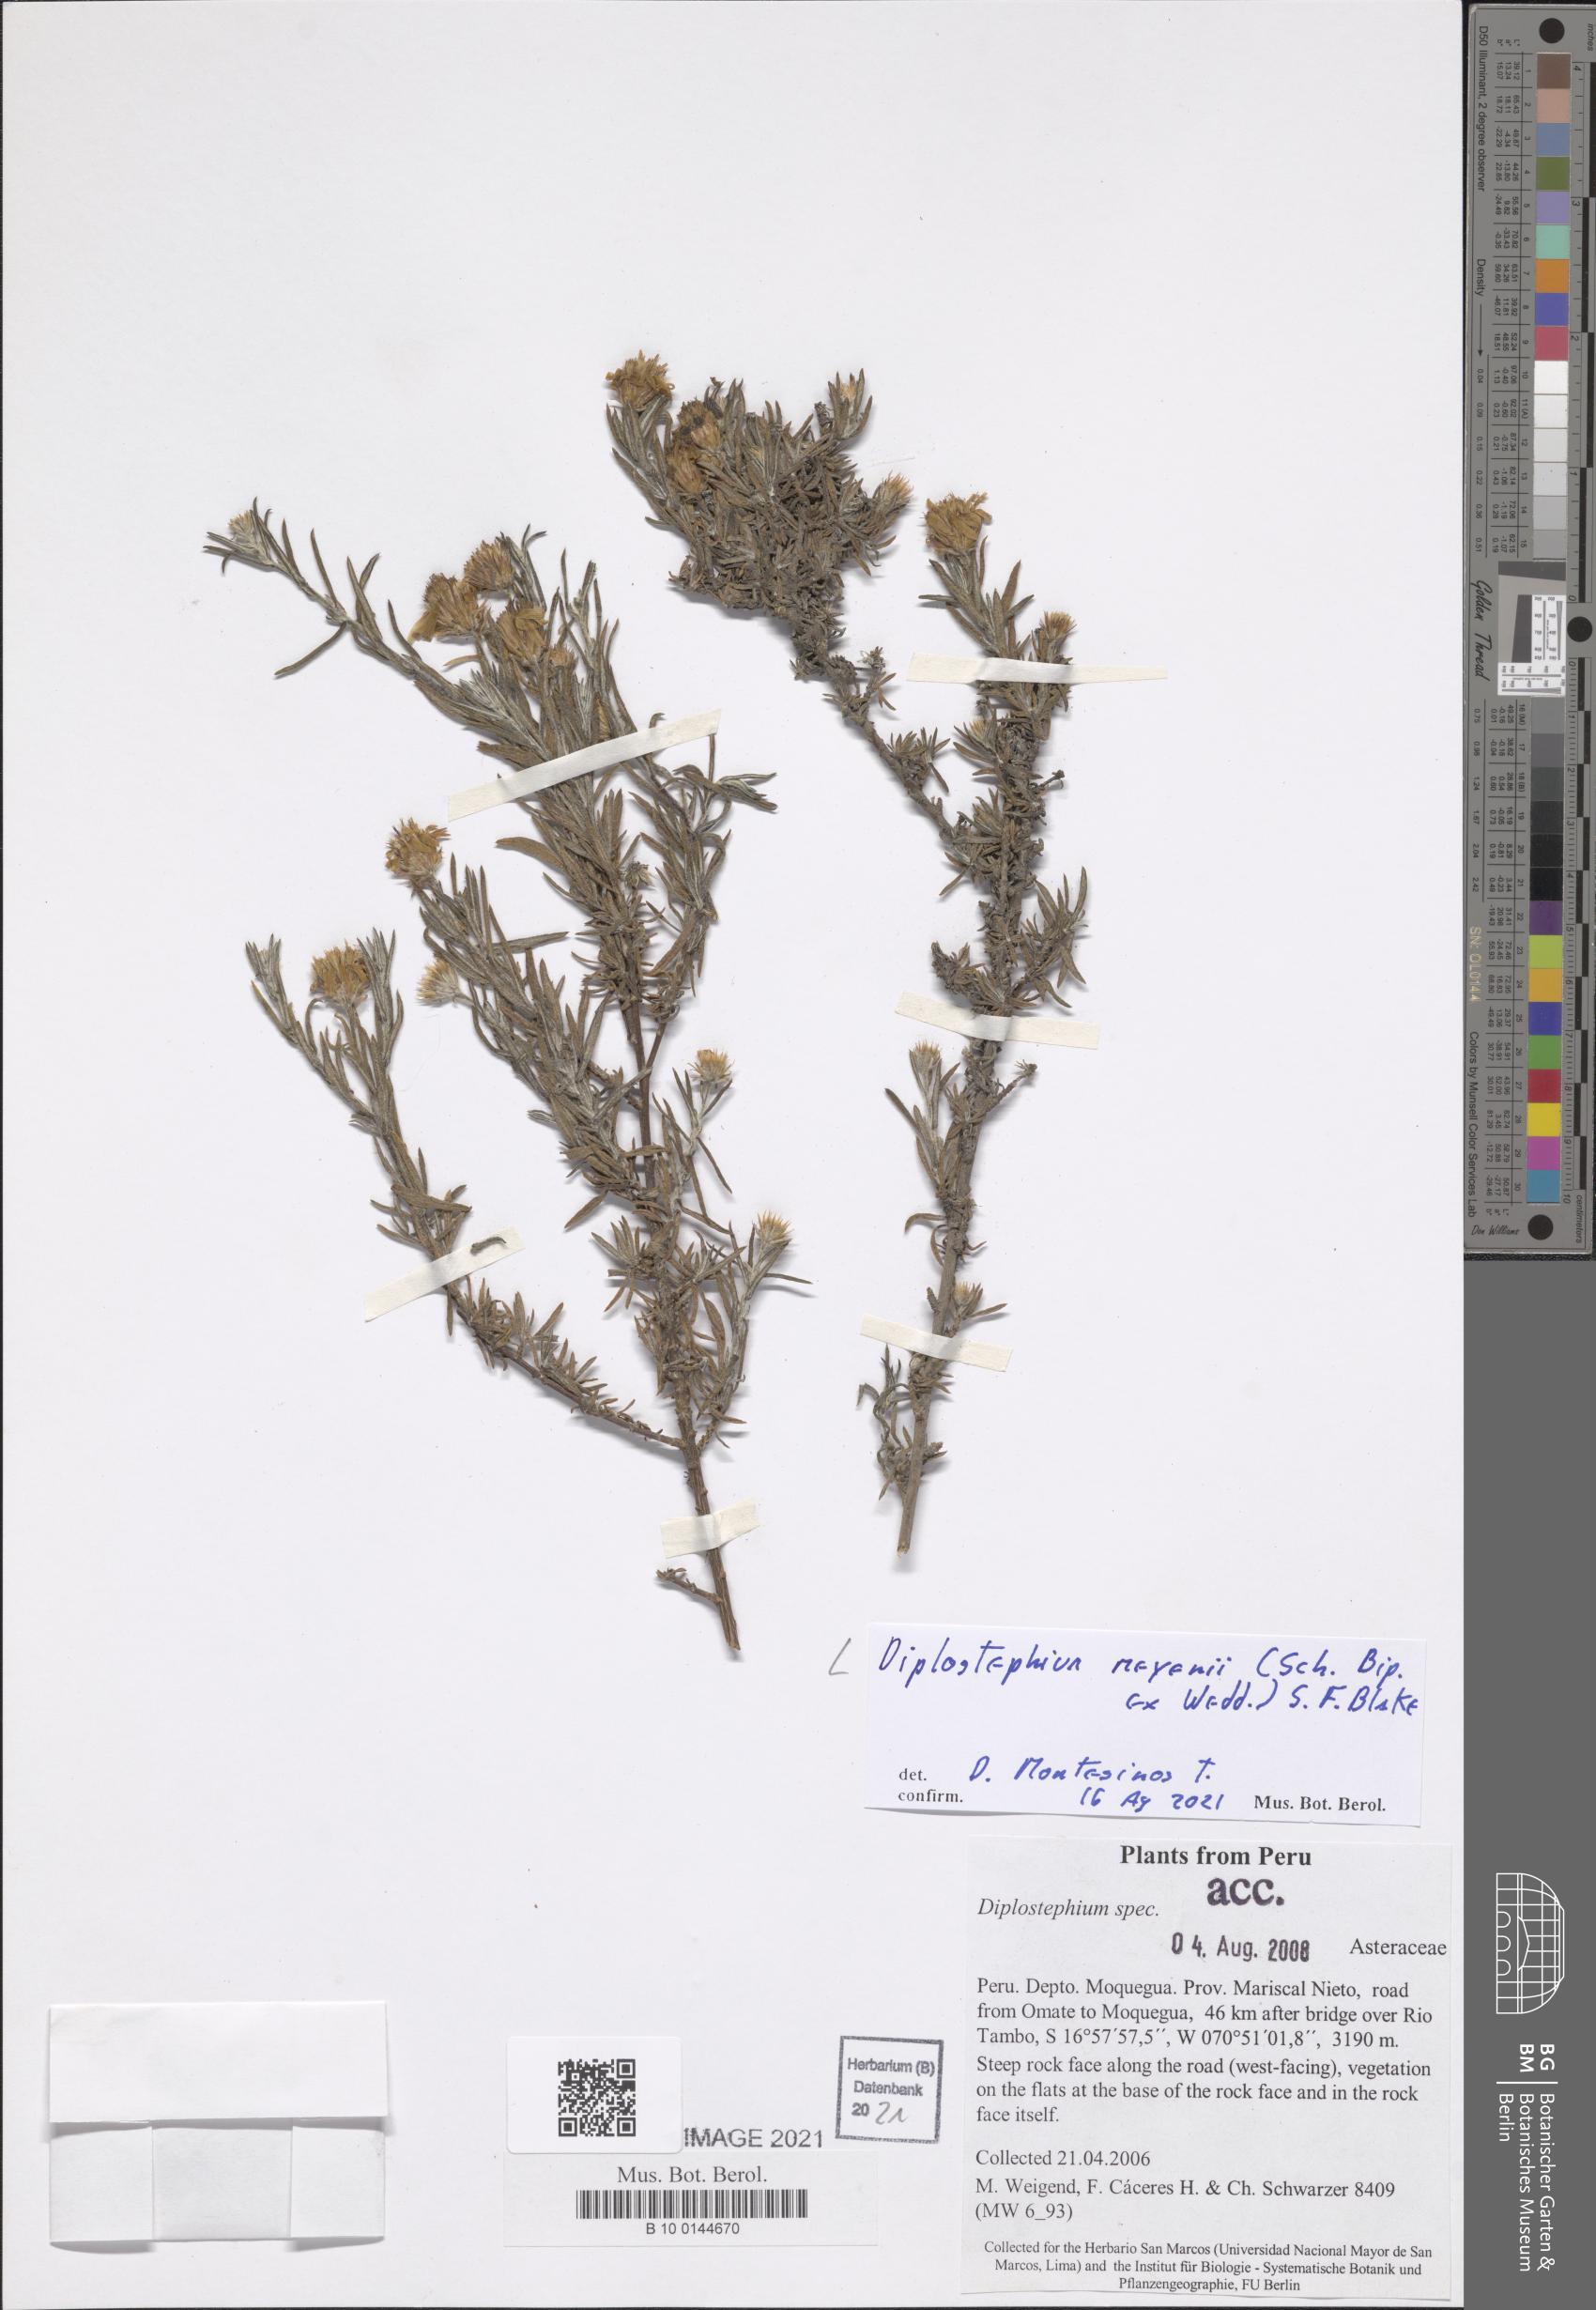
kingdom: Plantae
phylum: Tracheophyta
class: Magnoliopsida
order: Asterales
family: Asteraceae
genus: Diplostephium
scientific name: Diplostephium meyenii
